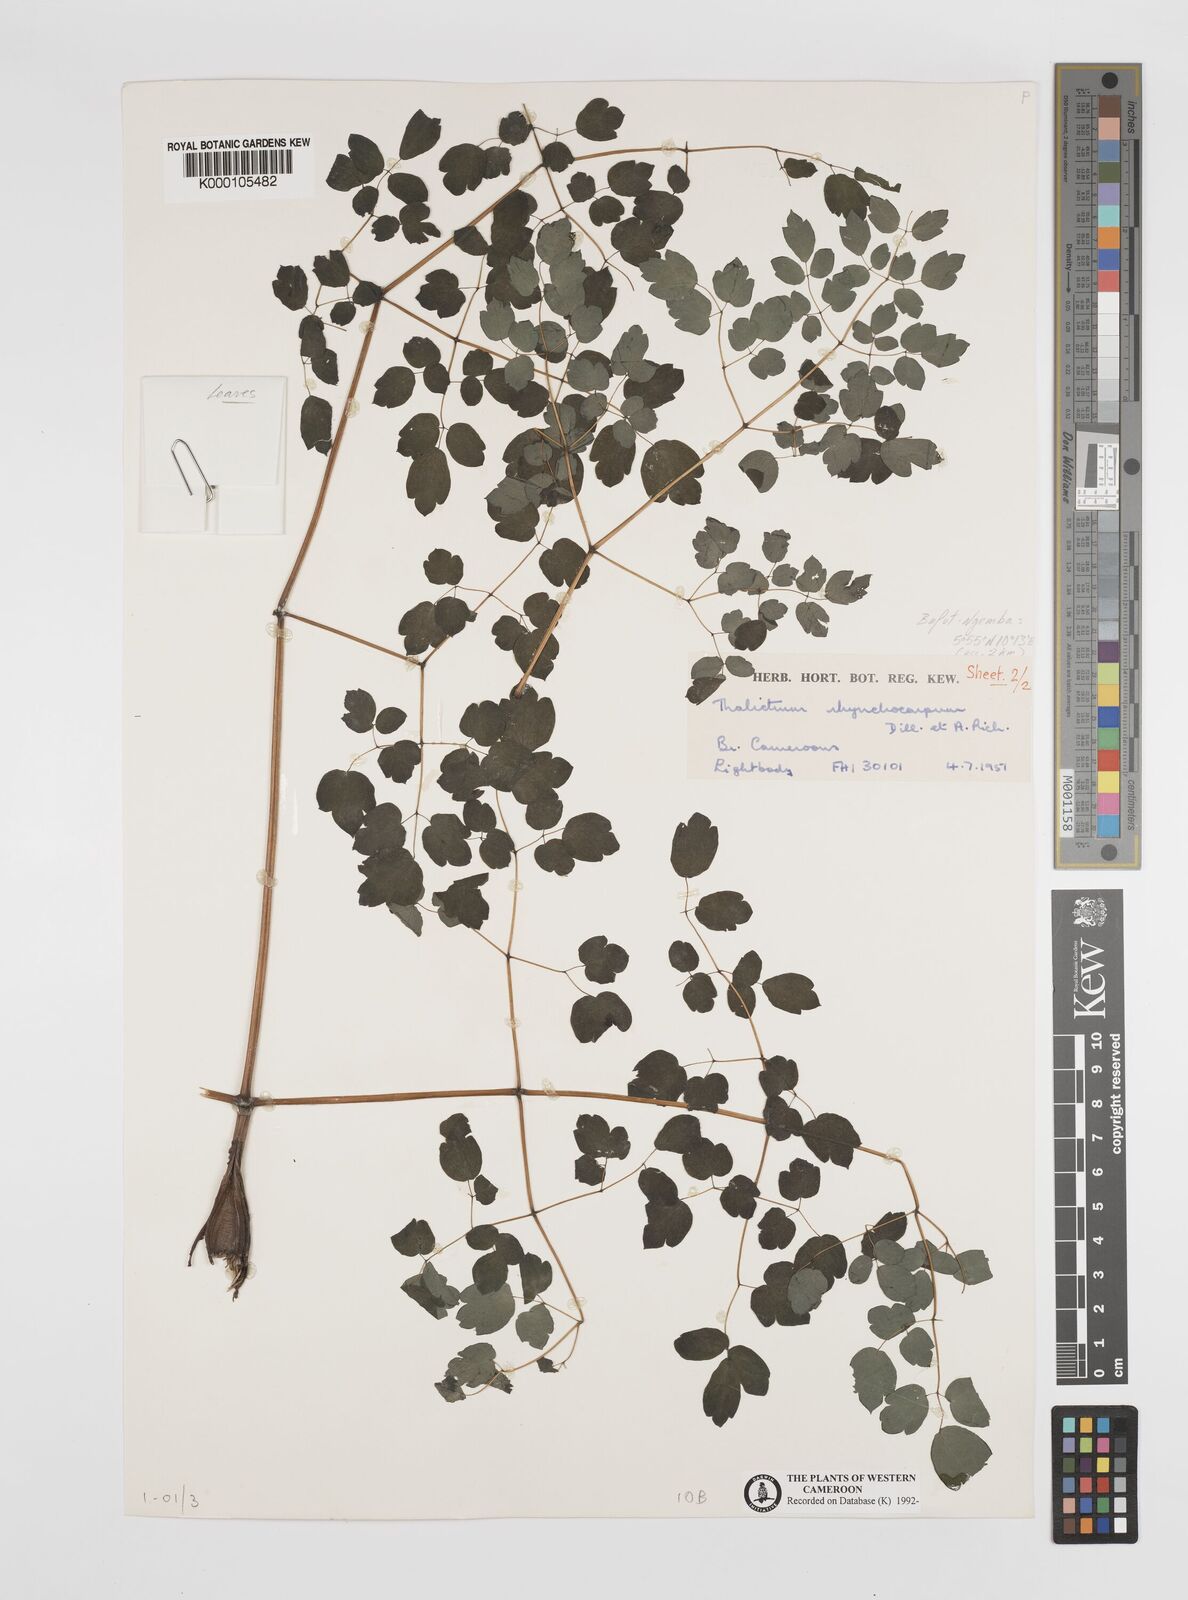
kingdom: Plantae
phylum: Tracheophyta
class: Magnoliopsida
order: Ranunculales
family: Ranunculaceae
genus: Thalictrum
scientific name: Thalictrum
